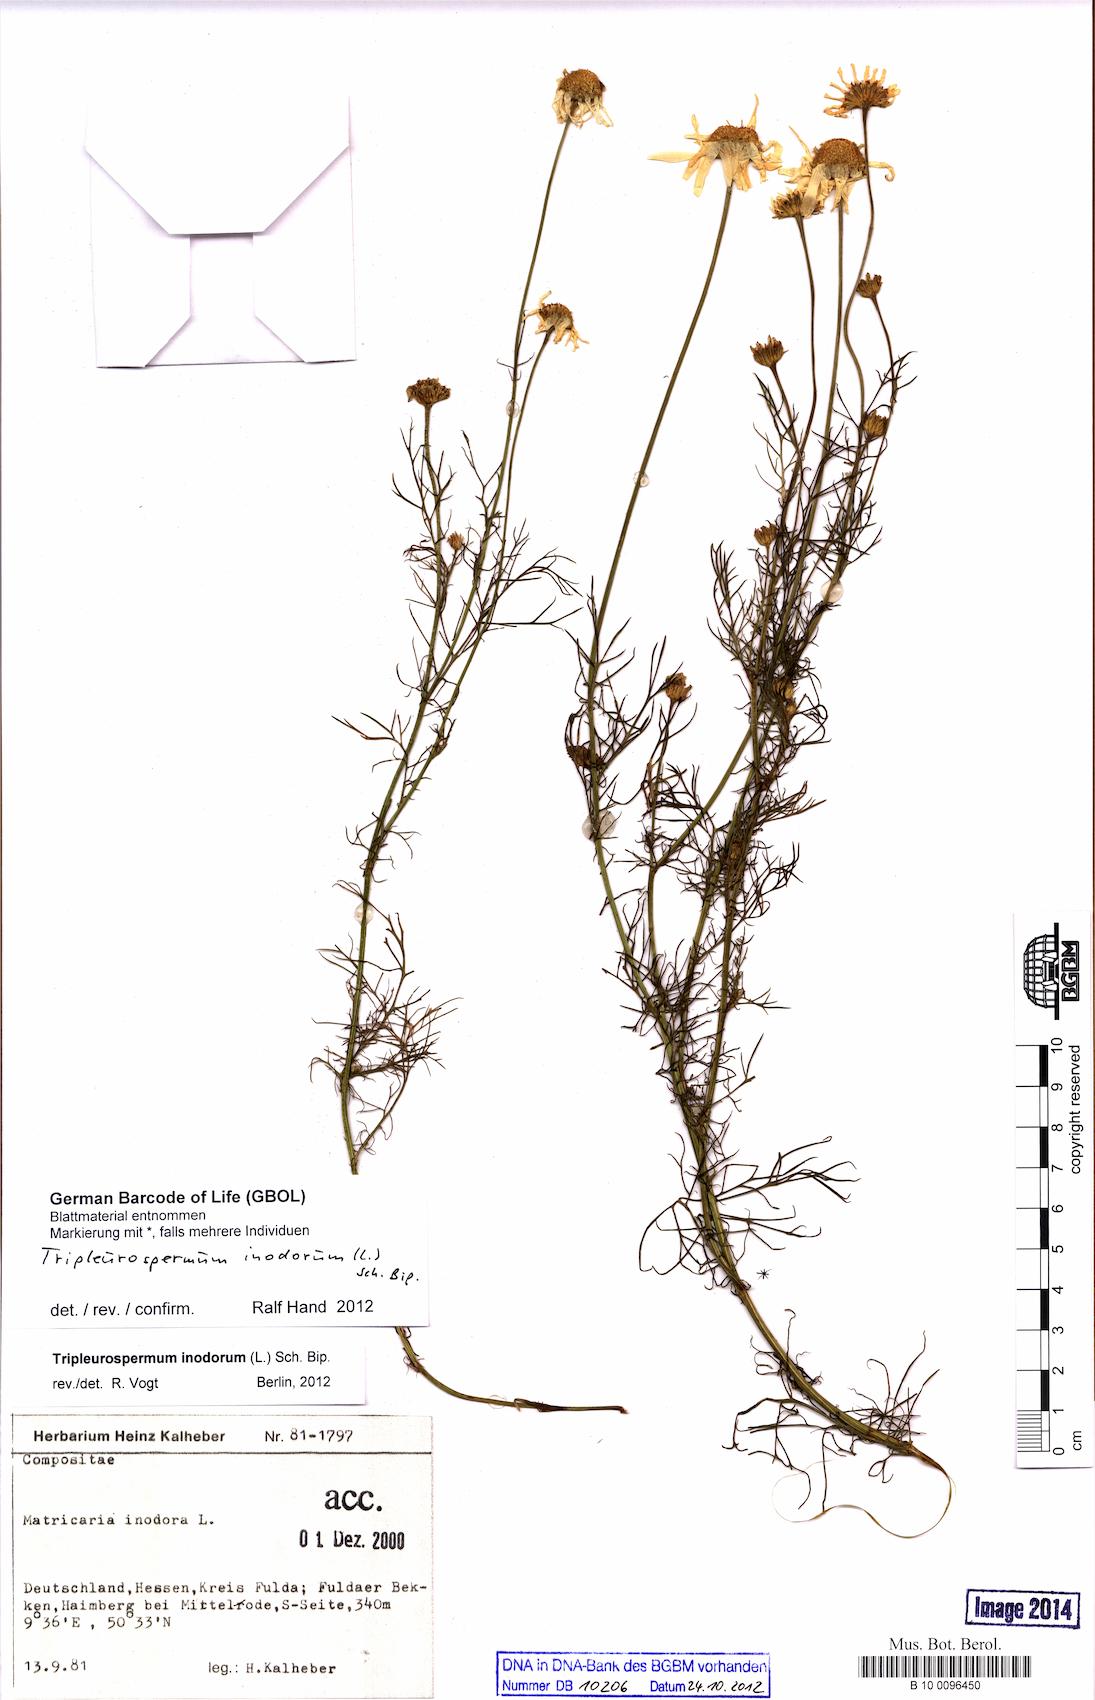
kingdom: Plantae
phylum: Tracheophyta
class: Magnoliopsida
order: Asterales
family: Asteraceae
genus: Tripleurospermum
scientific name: Tripleurospermum inodorum
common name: Scentless mayweed
